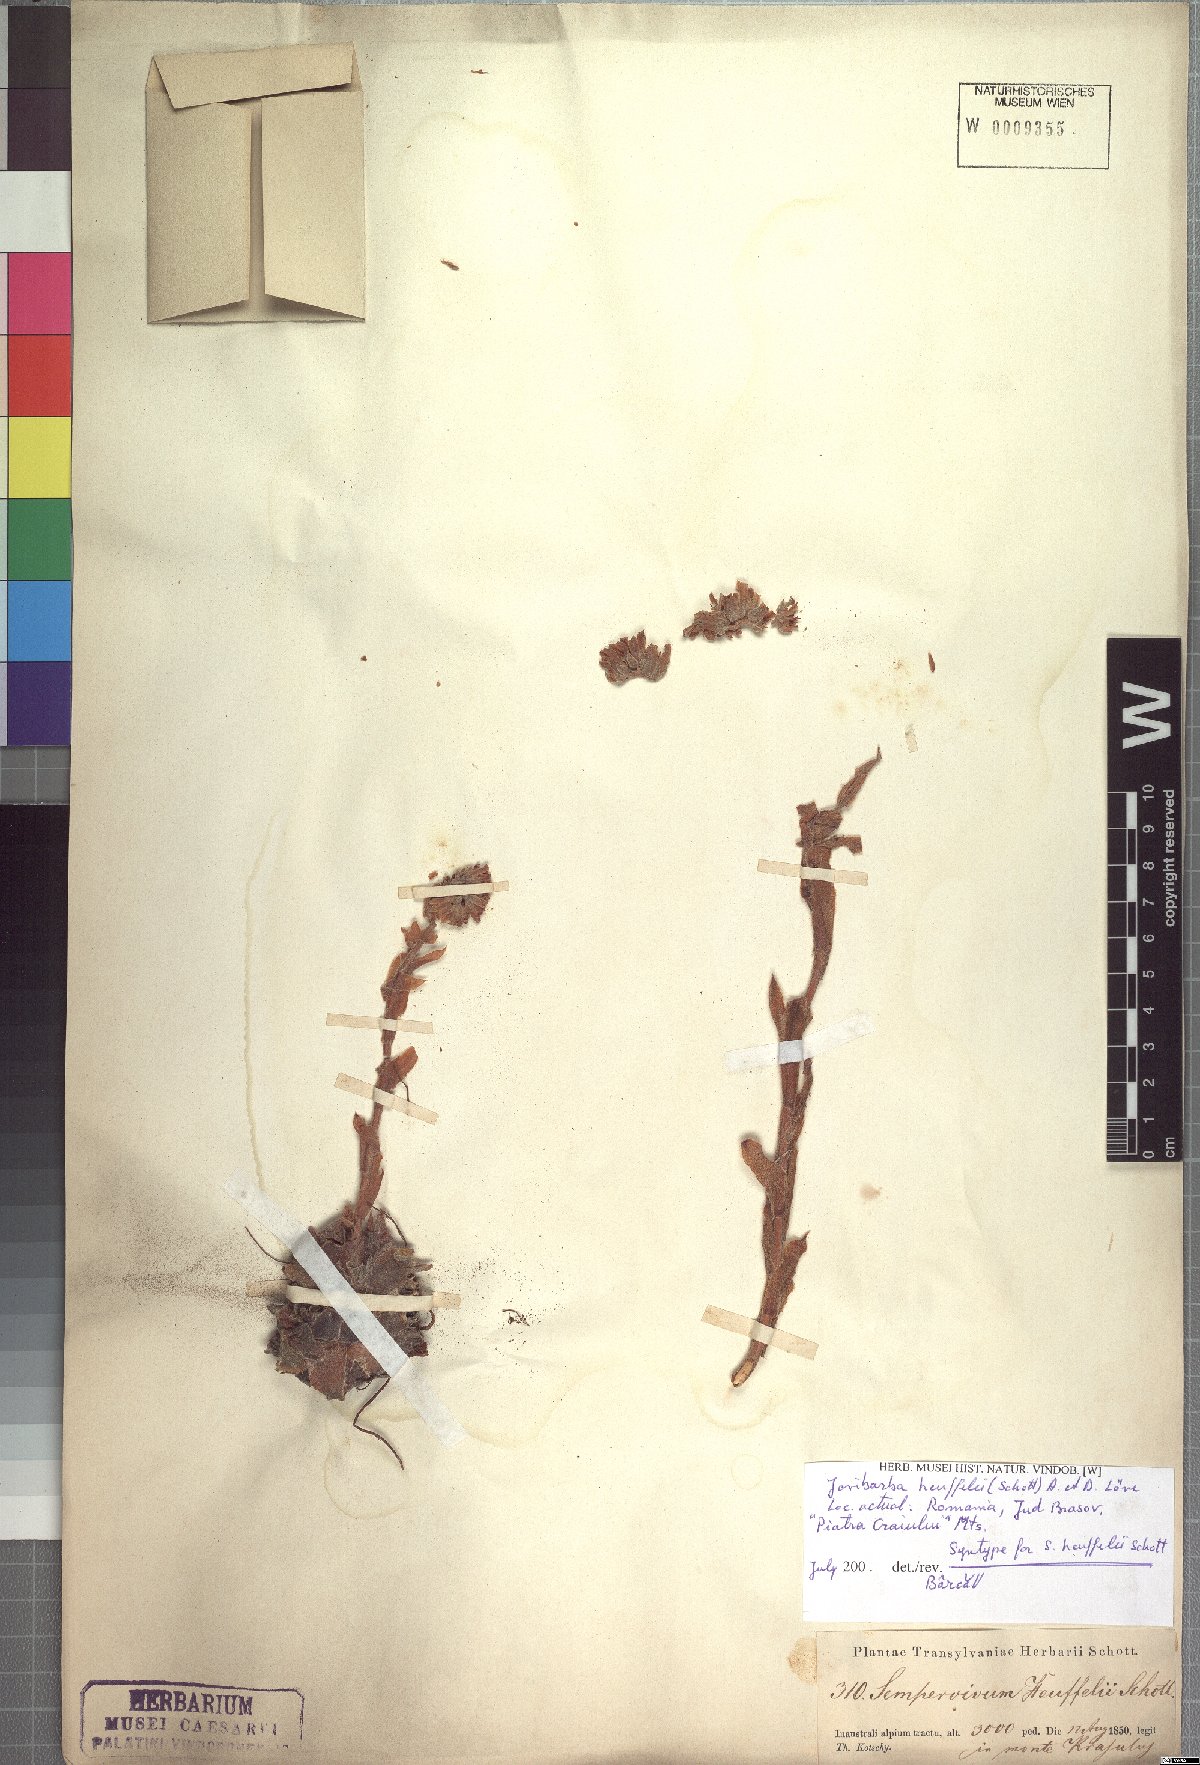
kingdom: Plantae
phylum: Tracheophyta
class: Magnoliopsida
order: Saxifragales
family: Crassulaceae
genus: Sempervivum
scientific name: Sempervivum heuffelii
